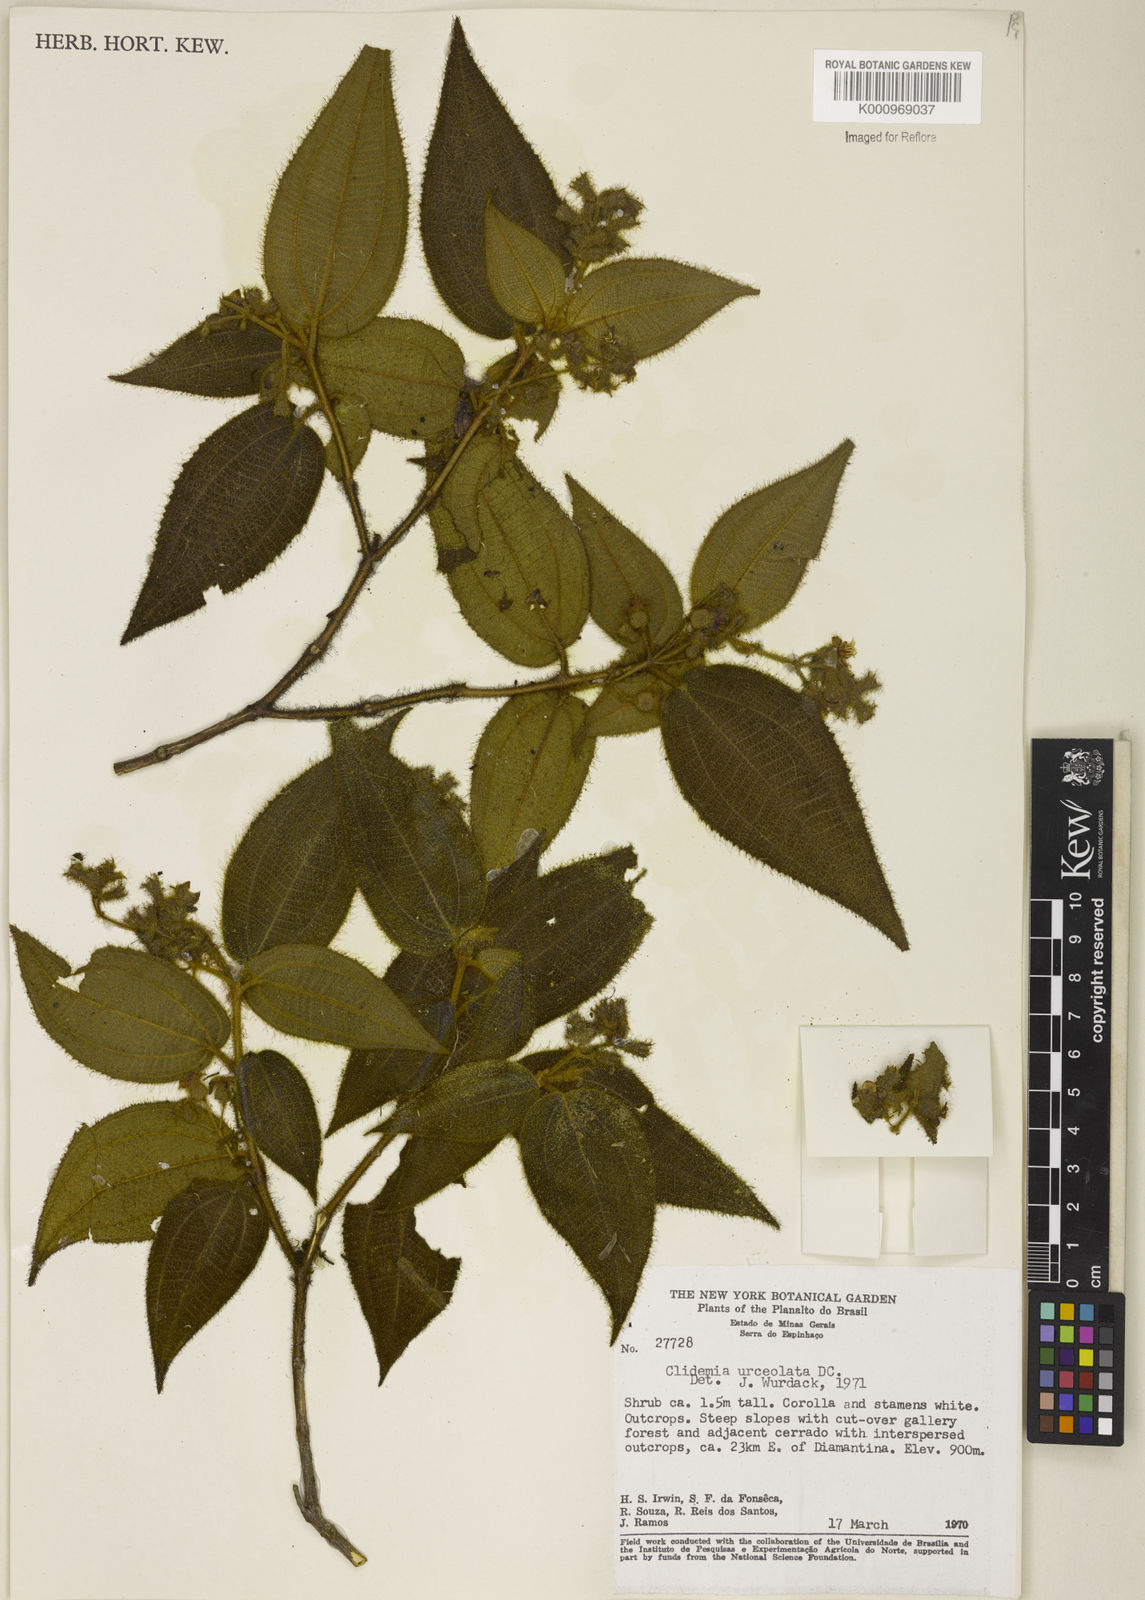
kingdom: Plantae
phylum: Tracheophyta
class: Magnoliopsida
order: Myrtales
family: Melastomataceae
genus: Miconia
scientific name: Miconia neourceolata
